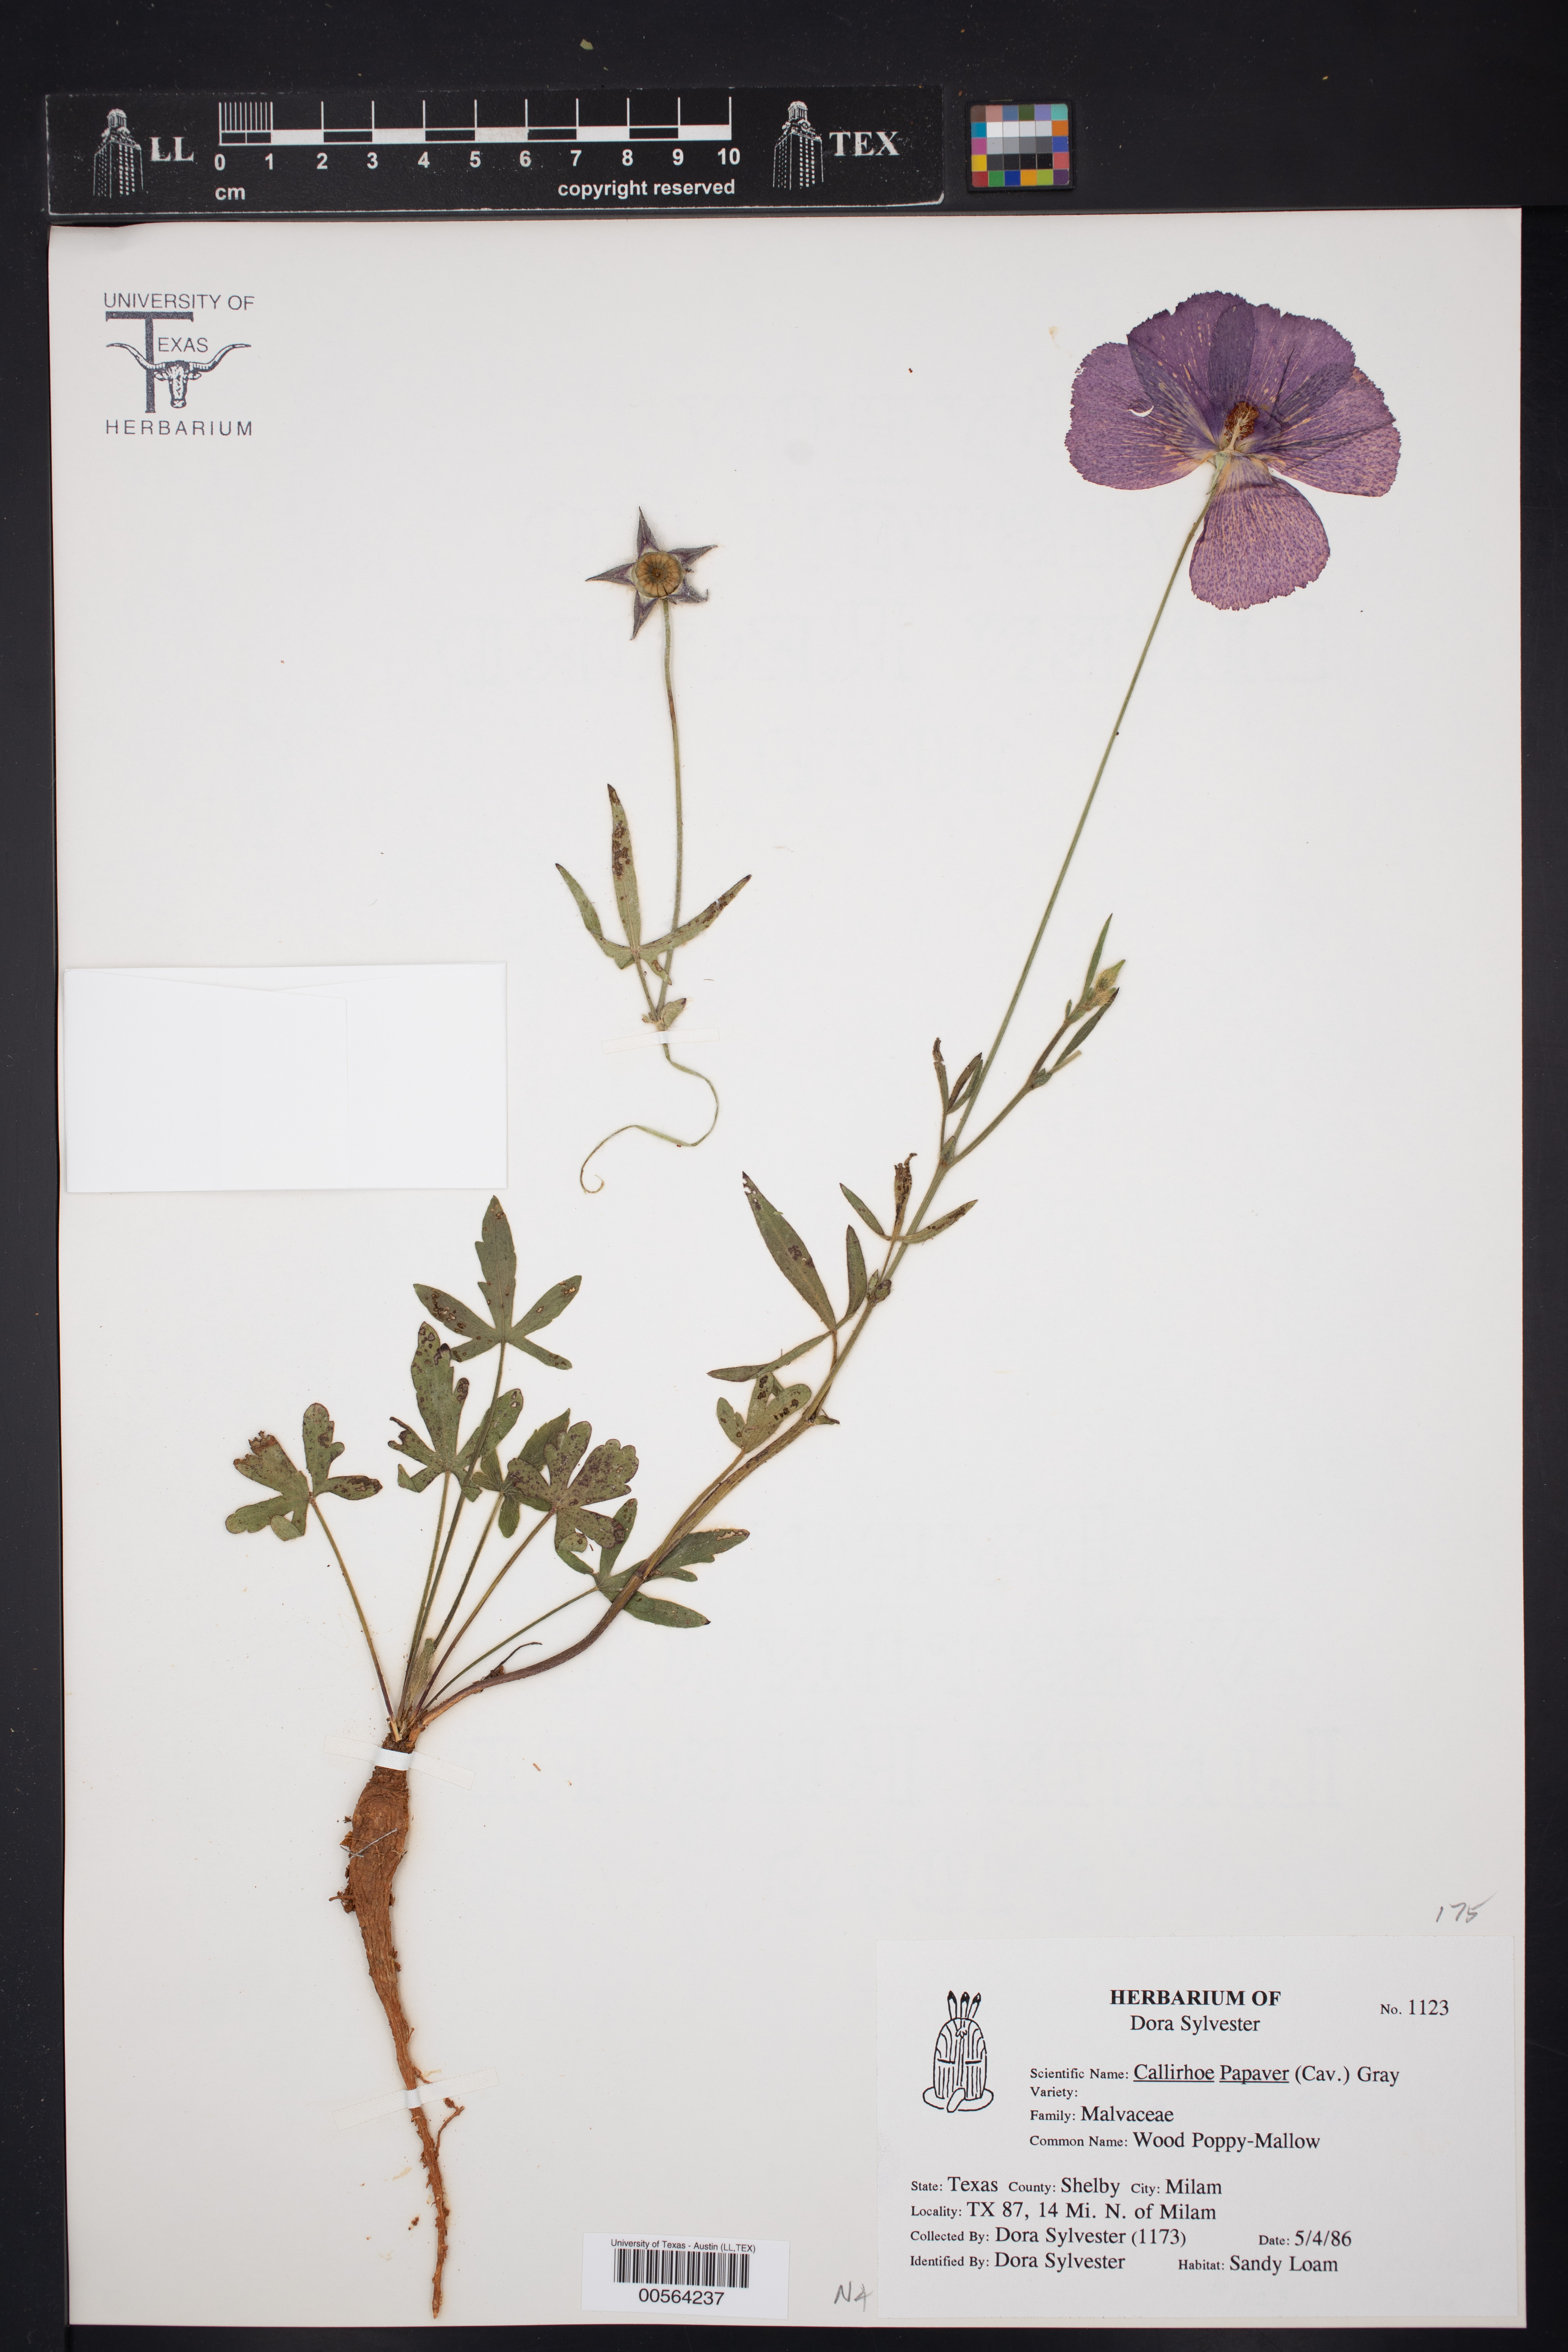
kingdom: Plantae
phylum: Tracheophyta
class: Magnoliopsida
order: Malvales
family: Malvaceae
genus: Callirhoe
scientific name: Callirhoe papaver
